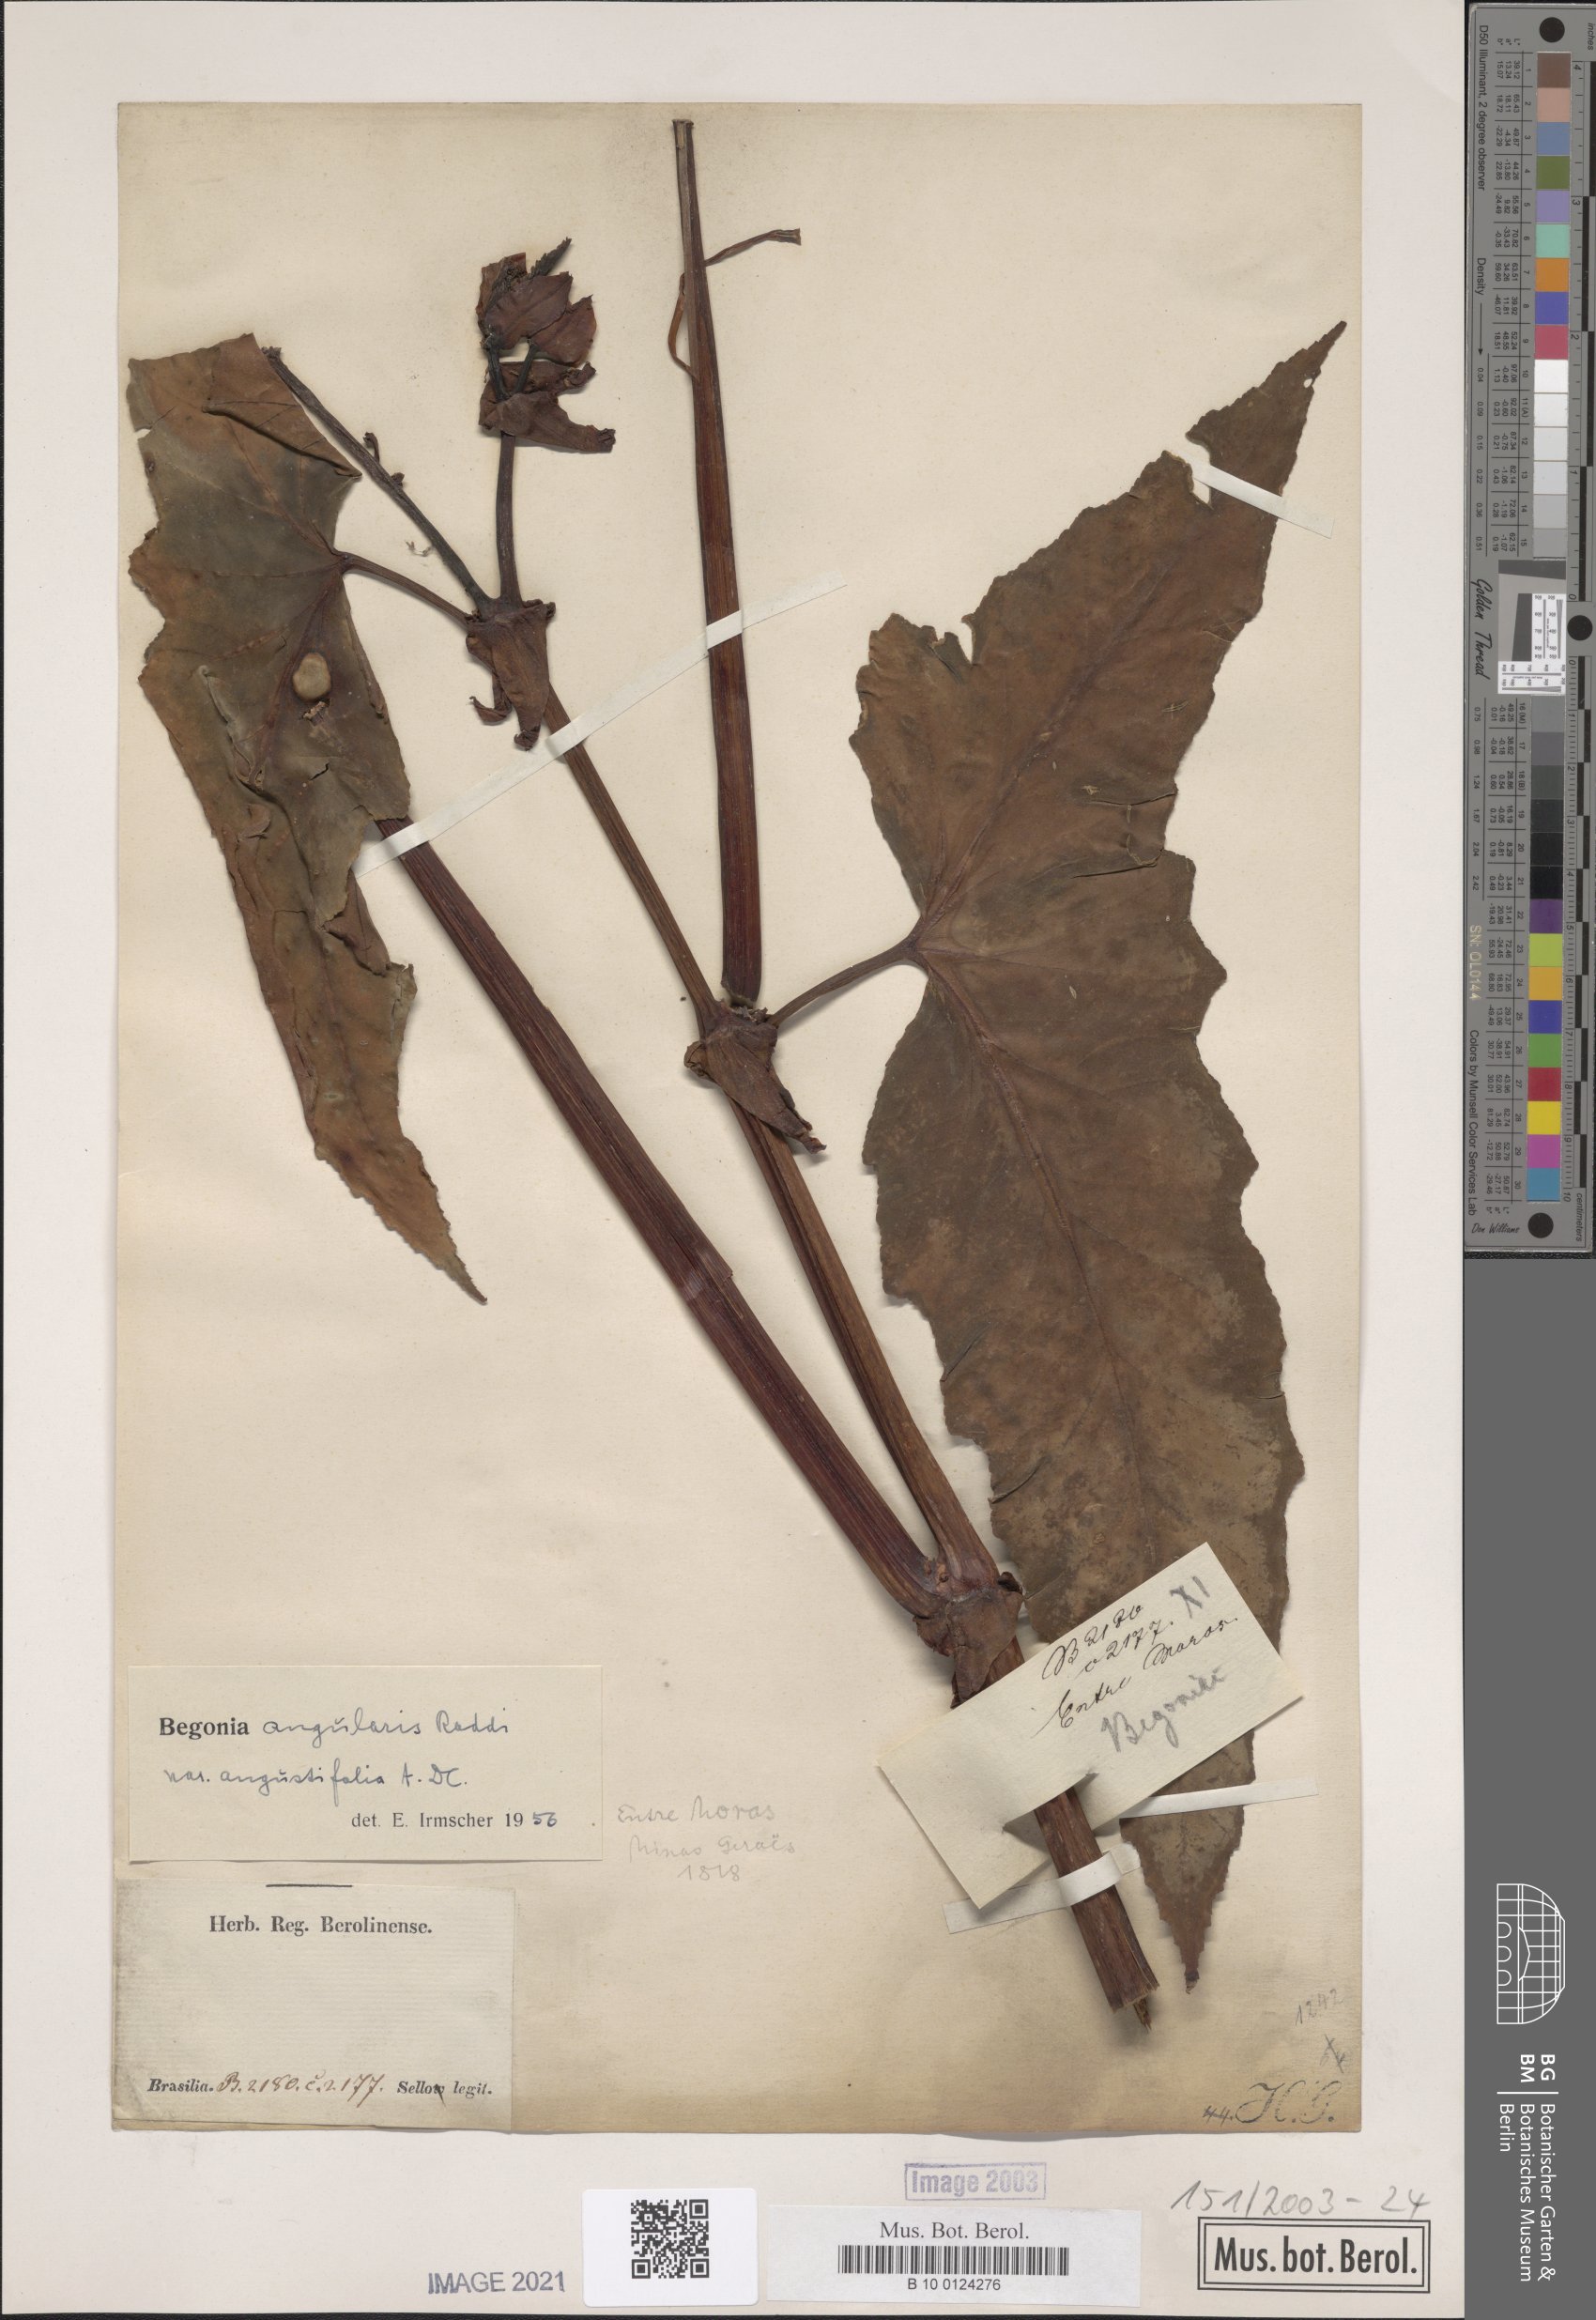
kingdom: Plantae
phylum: Tracheophyta
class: Magnoliopsida
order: Cucurbitales
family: Begoniaceae
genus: Begonia
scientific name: Begonia angularis
